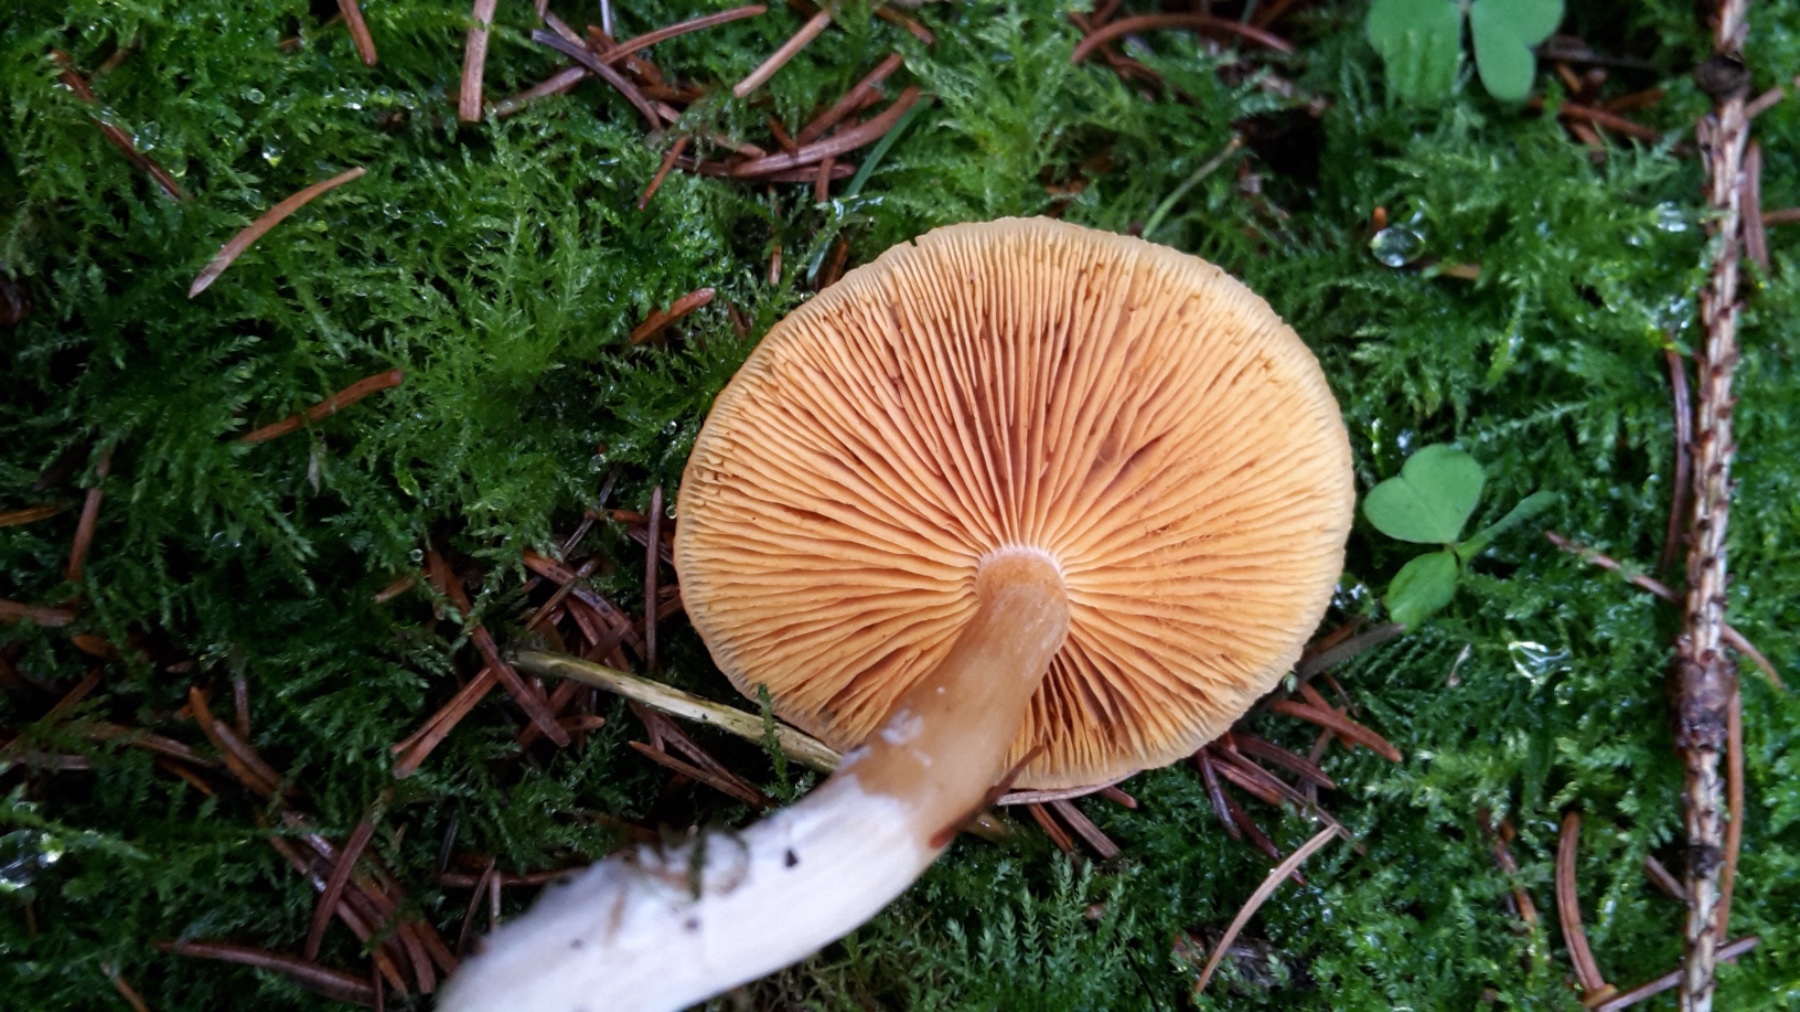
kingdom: Fungi
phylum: Basidiomycota
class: Agaricomycetes
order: Agaricales
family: Hymenogastraceae
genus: Gymnopilus
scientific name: Gymnopilus penetrans
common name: plettet flammehat
